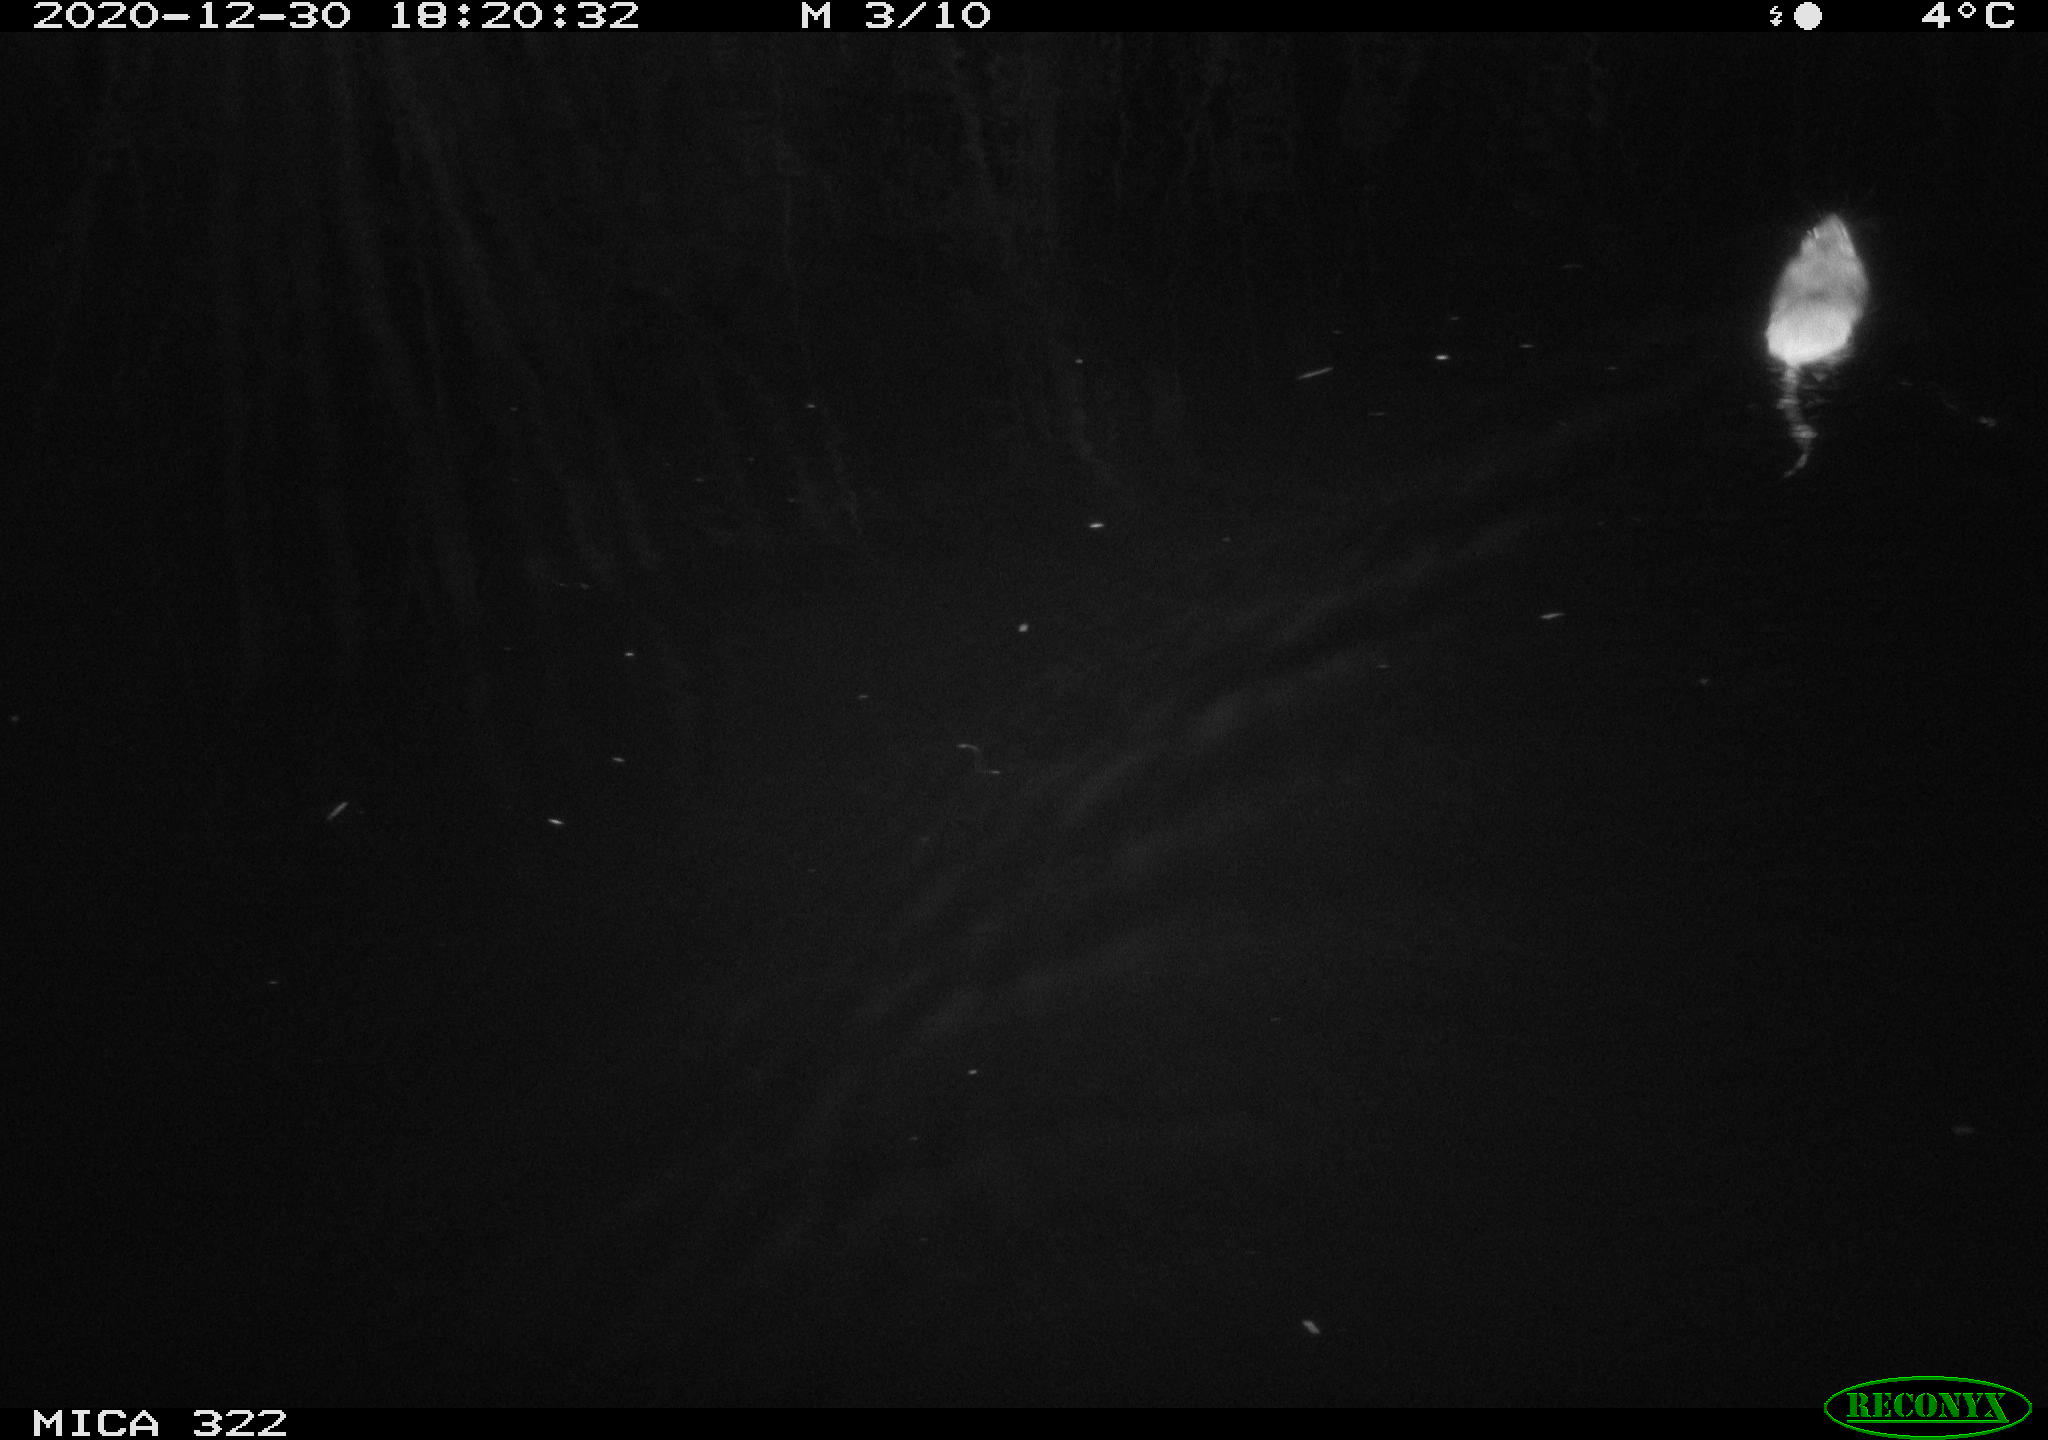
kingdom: Animalia
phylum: Chordata
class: Mammalia
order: Rodentia
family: Cricetidae
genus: Ondatra
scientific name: Ondatra zibethicus
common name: Muskrat
